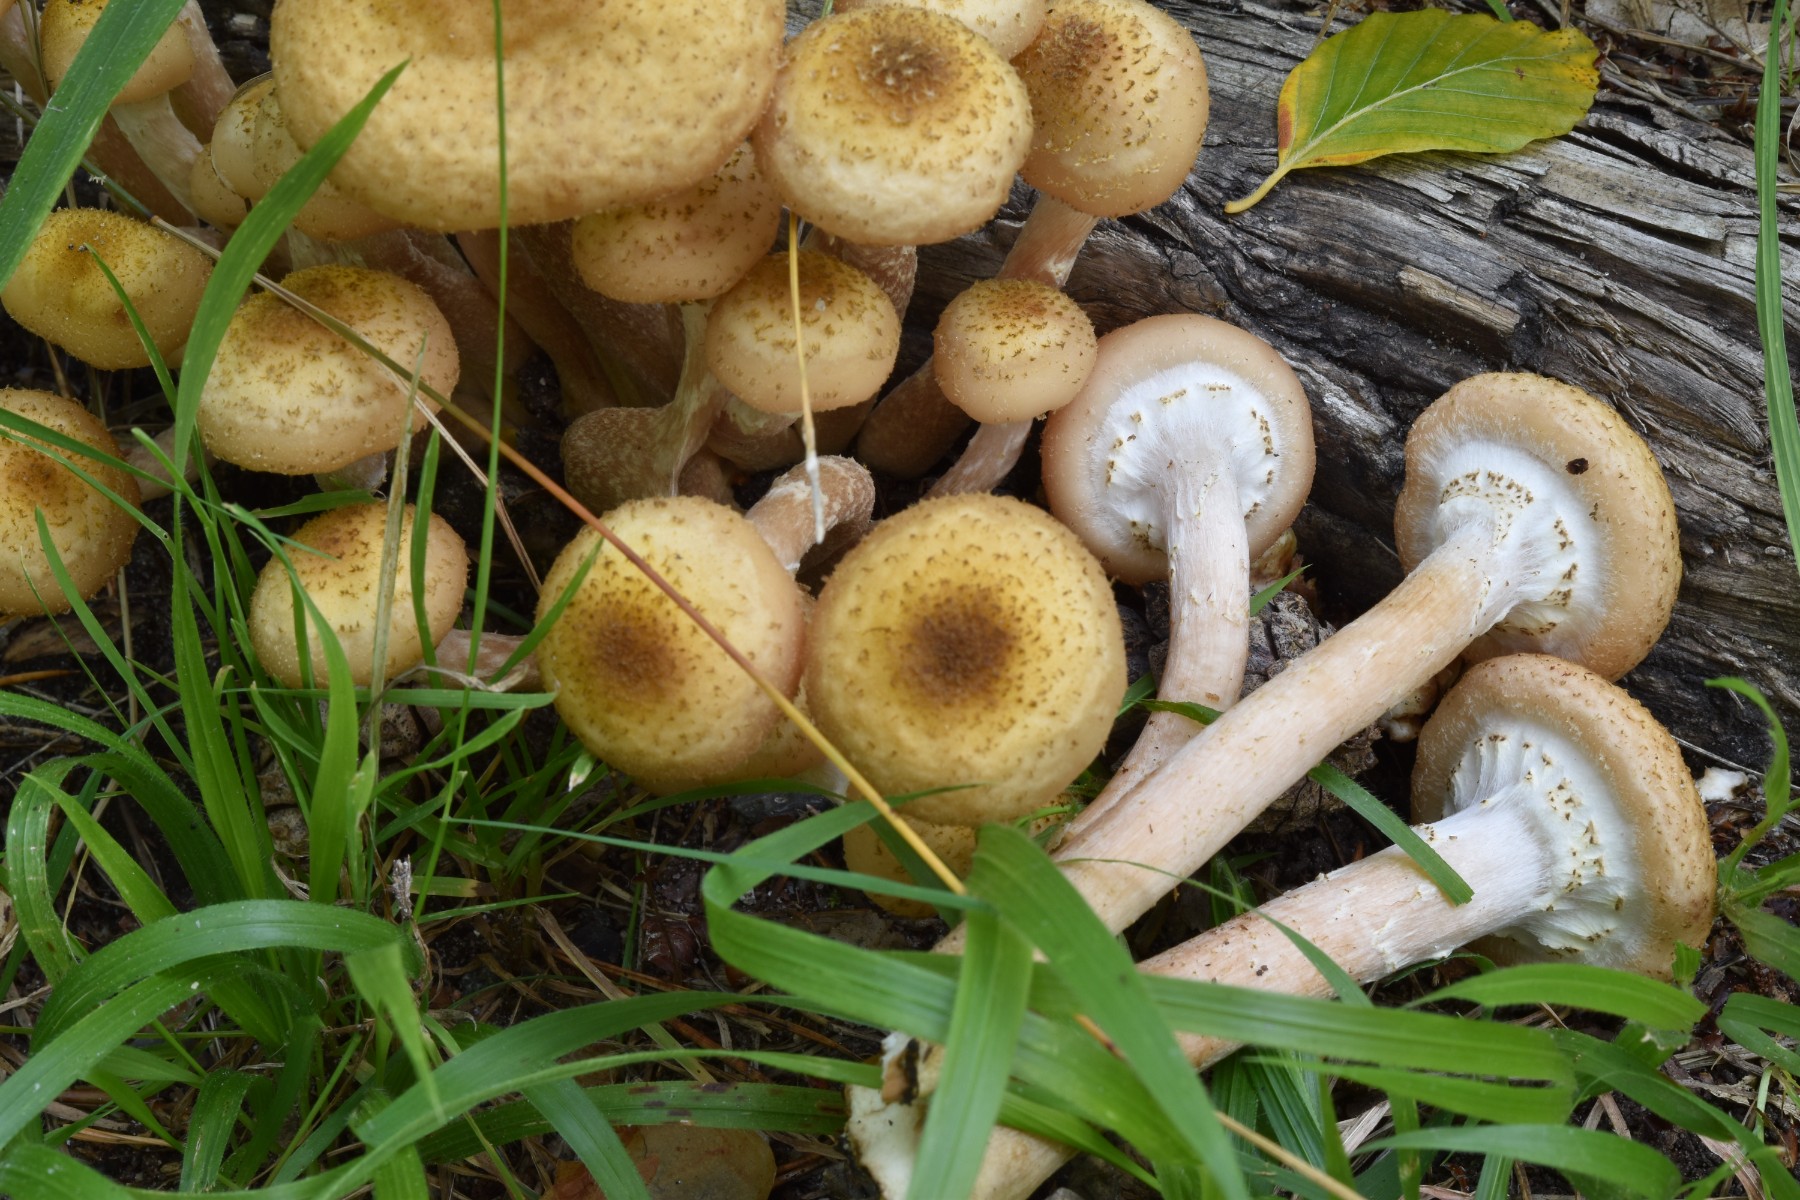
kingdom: Fungi
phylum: Basidiomycota
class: Agaricomycetes
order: Agaricales
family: Physalacriaceae
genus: Armillaria
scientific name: Armillaria ostoyae
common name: mørk honningsvamp
